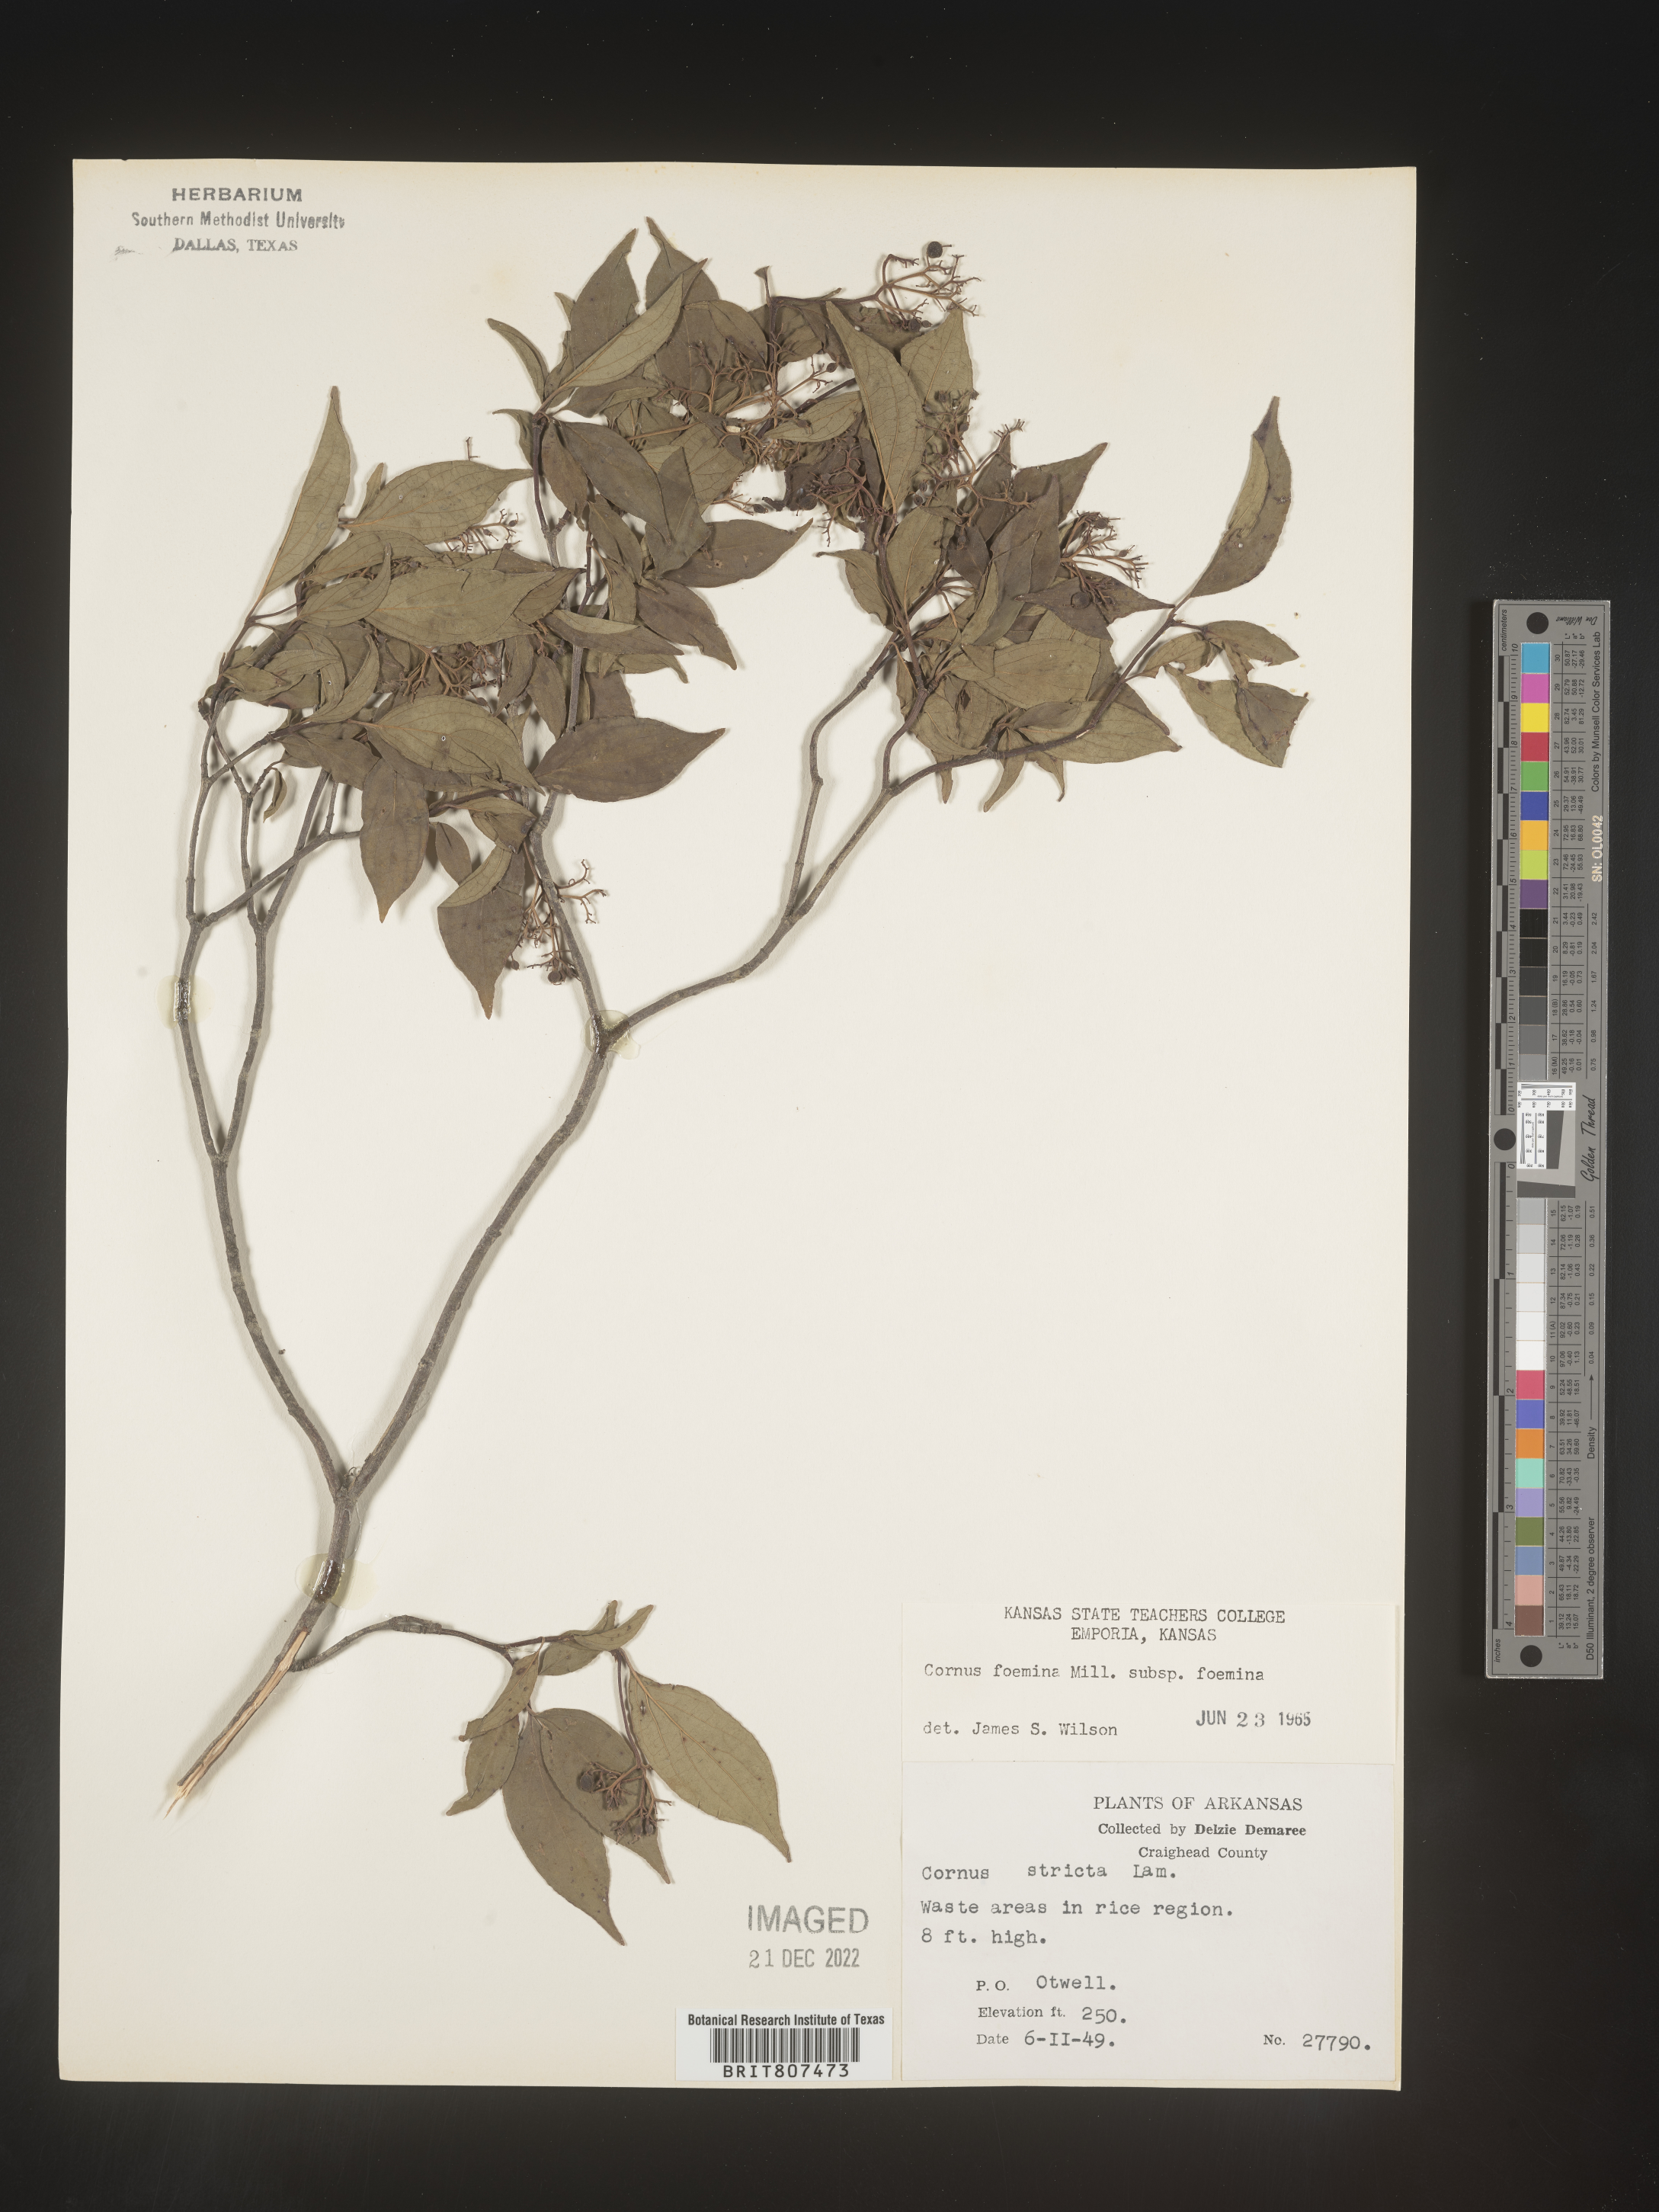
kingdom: Plantae
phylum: Tracheophyta
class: Magnoliopsida
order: Cornales
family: Cornaceae
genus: Cornus
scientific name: Cornus foemina
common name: Swamp dogwood
